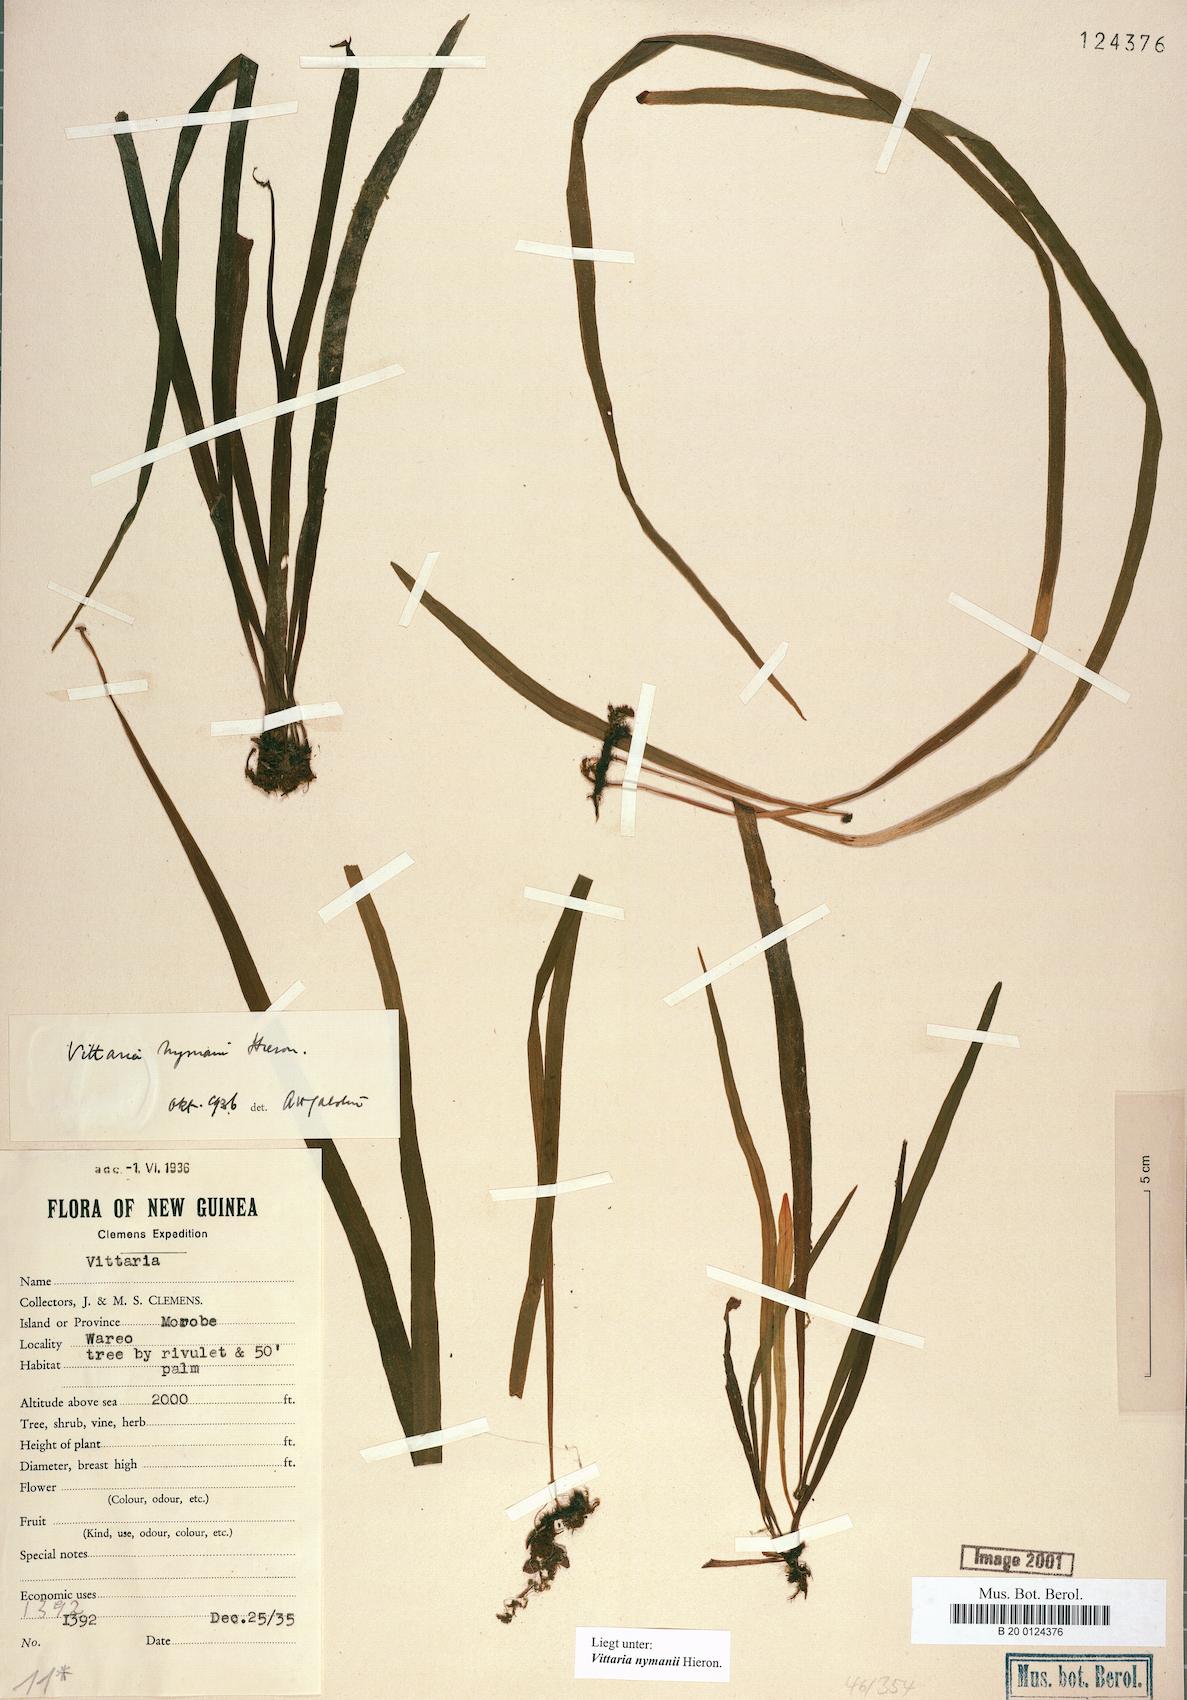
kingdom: Plantae
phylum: Tracheophyta
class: Polypodiopsida
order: Polypodiales
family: Pteridaceae
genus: Haplopteris
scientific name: Haplopteris elongata
